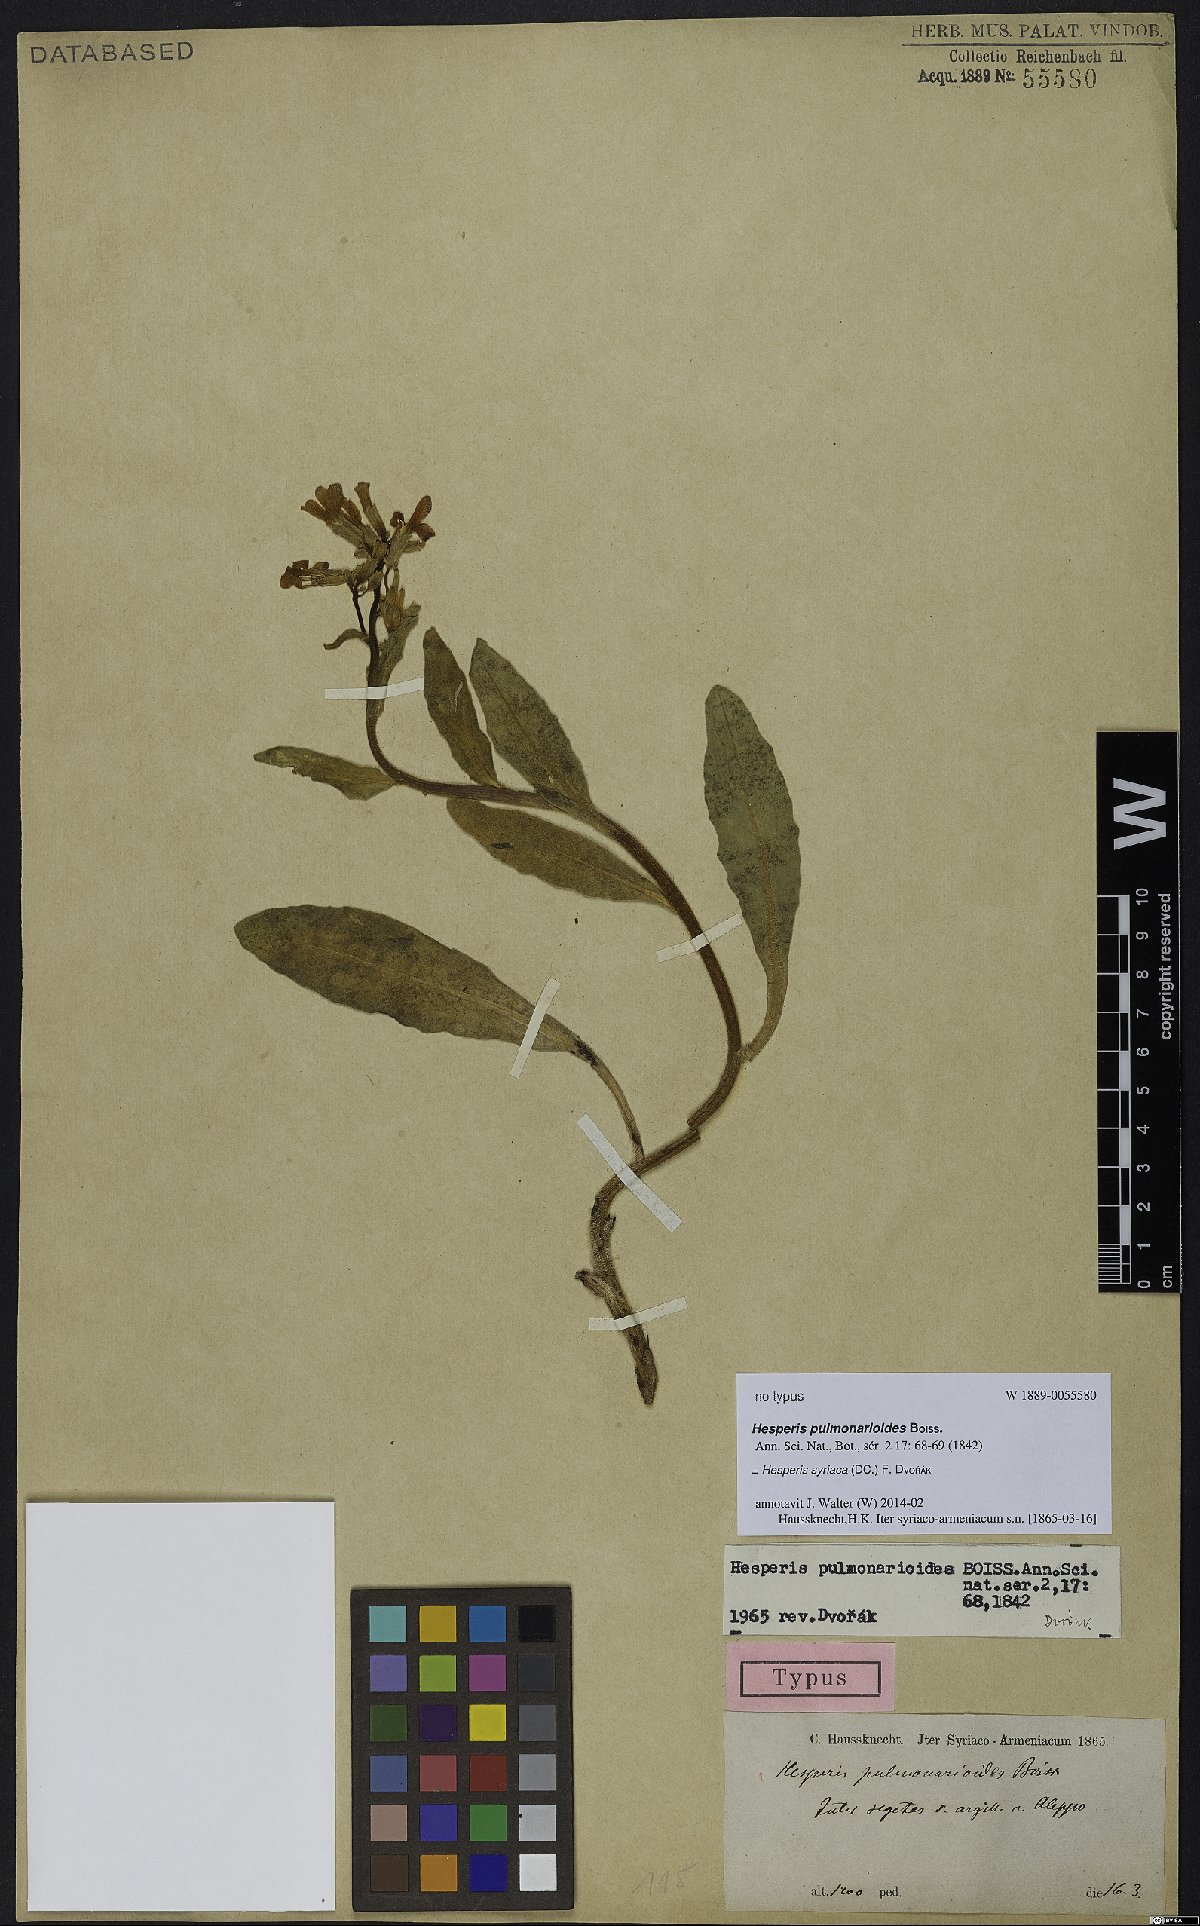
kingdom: Plantae
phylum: Tracheophyta
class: Magnoliopsida
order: Brassicales
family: Brassicaceae
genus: Hesperis
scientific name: Hesperis syriaca
